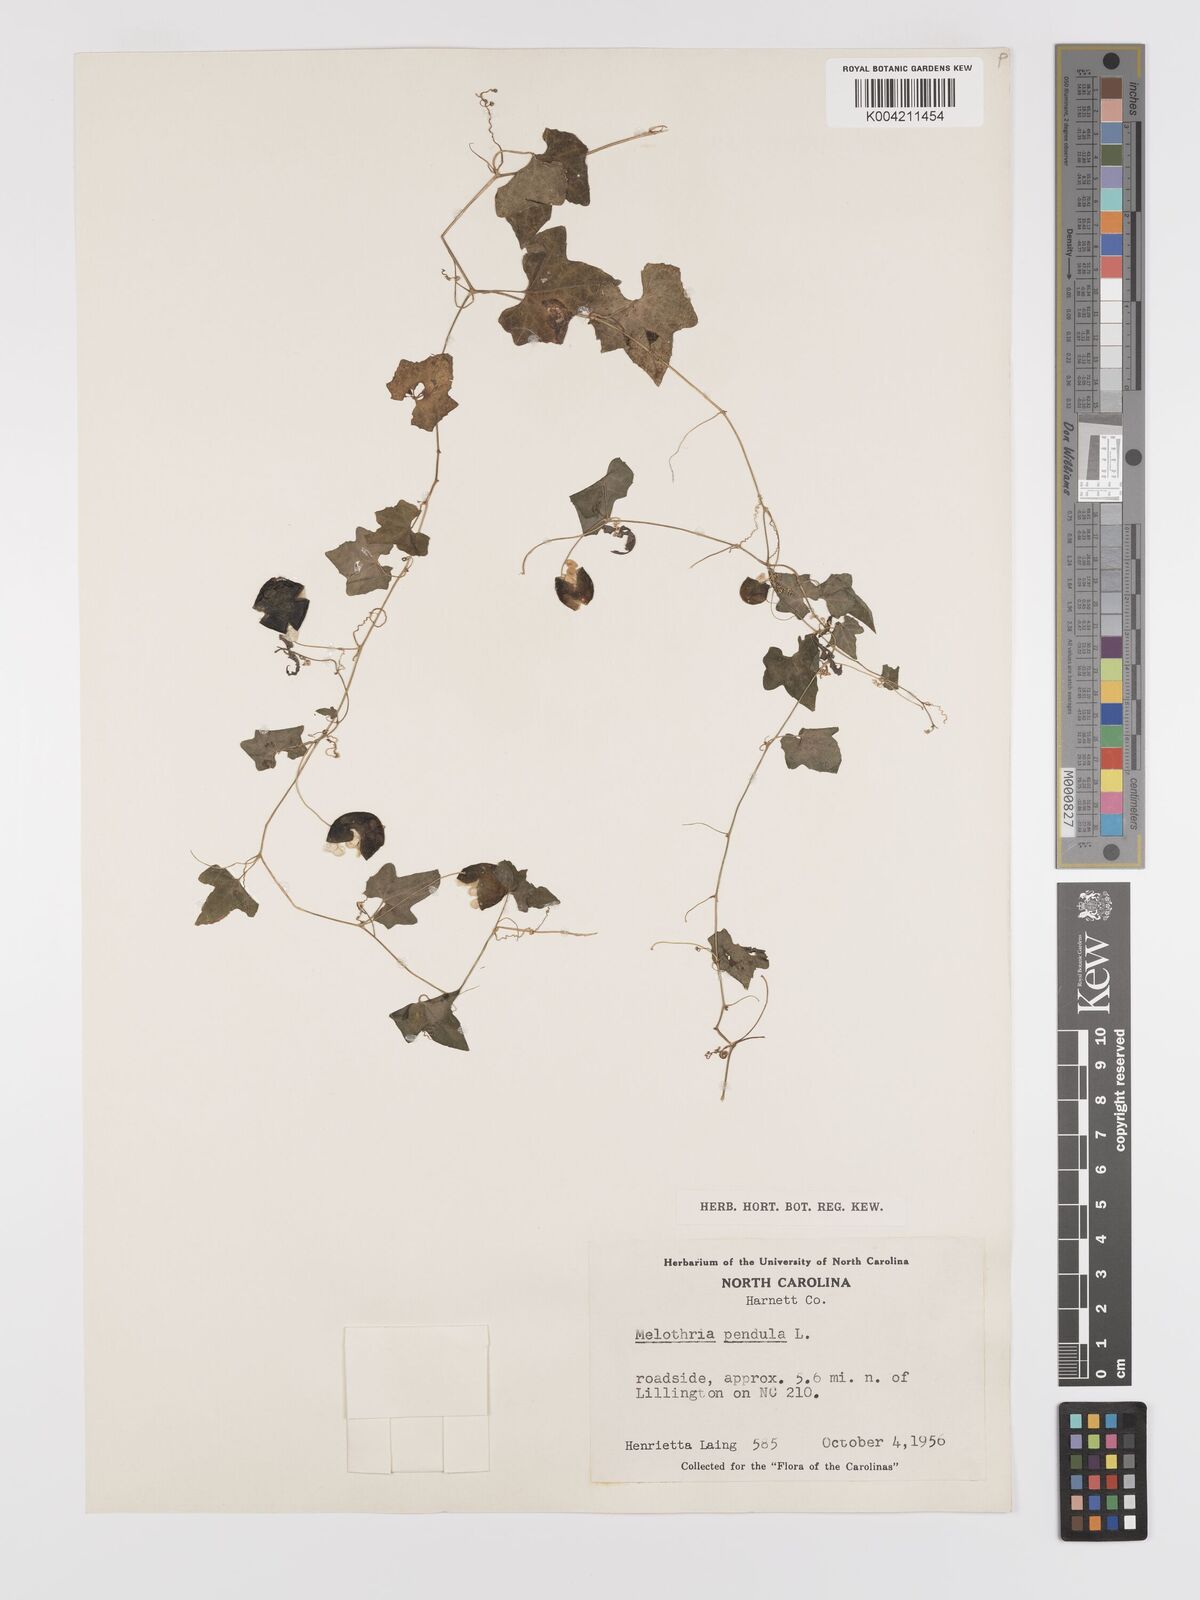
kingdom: Plantae
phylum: Tracheophyta
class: Magnoliopsida
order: Cucurbitales
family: Cucurbitaceae
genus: Melothria
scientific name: Melothria pendula
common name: Creeping-cucumber
